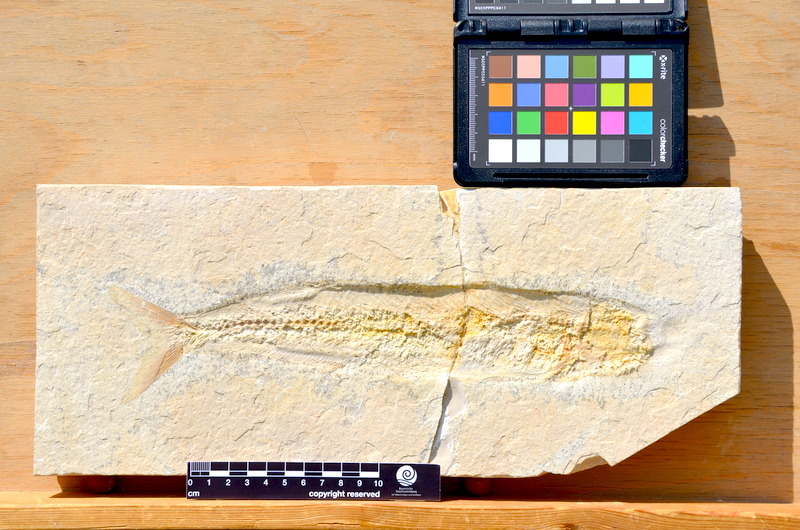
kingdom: Animalia
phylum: Chordata
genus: Pachythrissops
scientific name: Pachythrissops propterus
